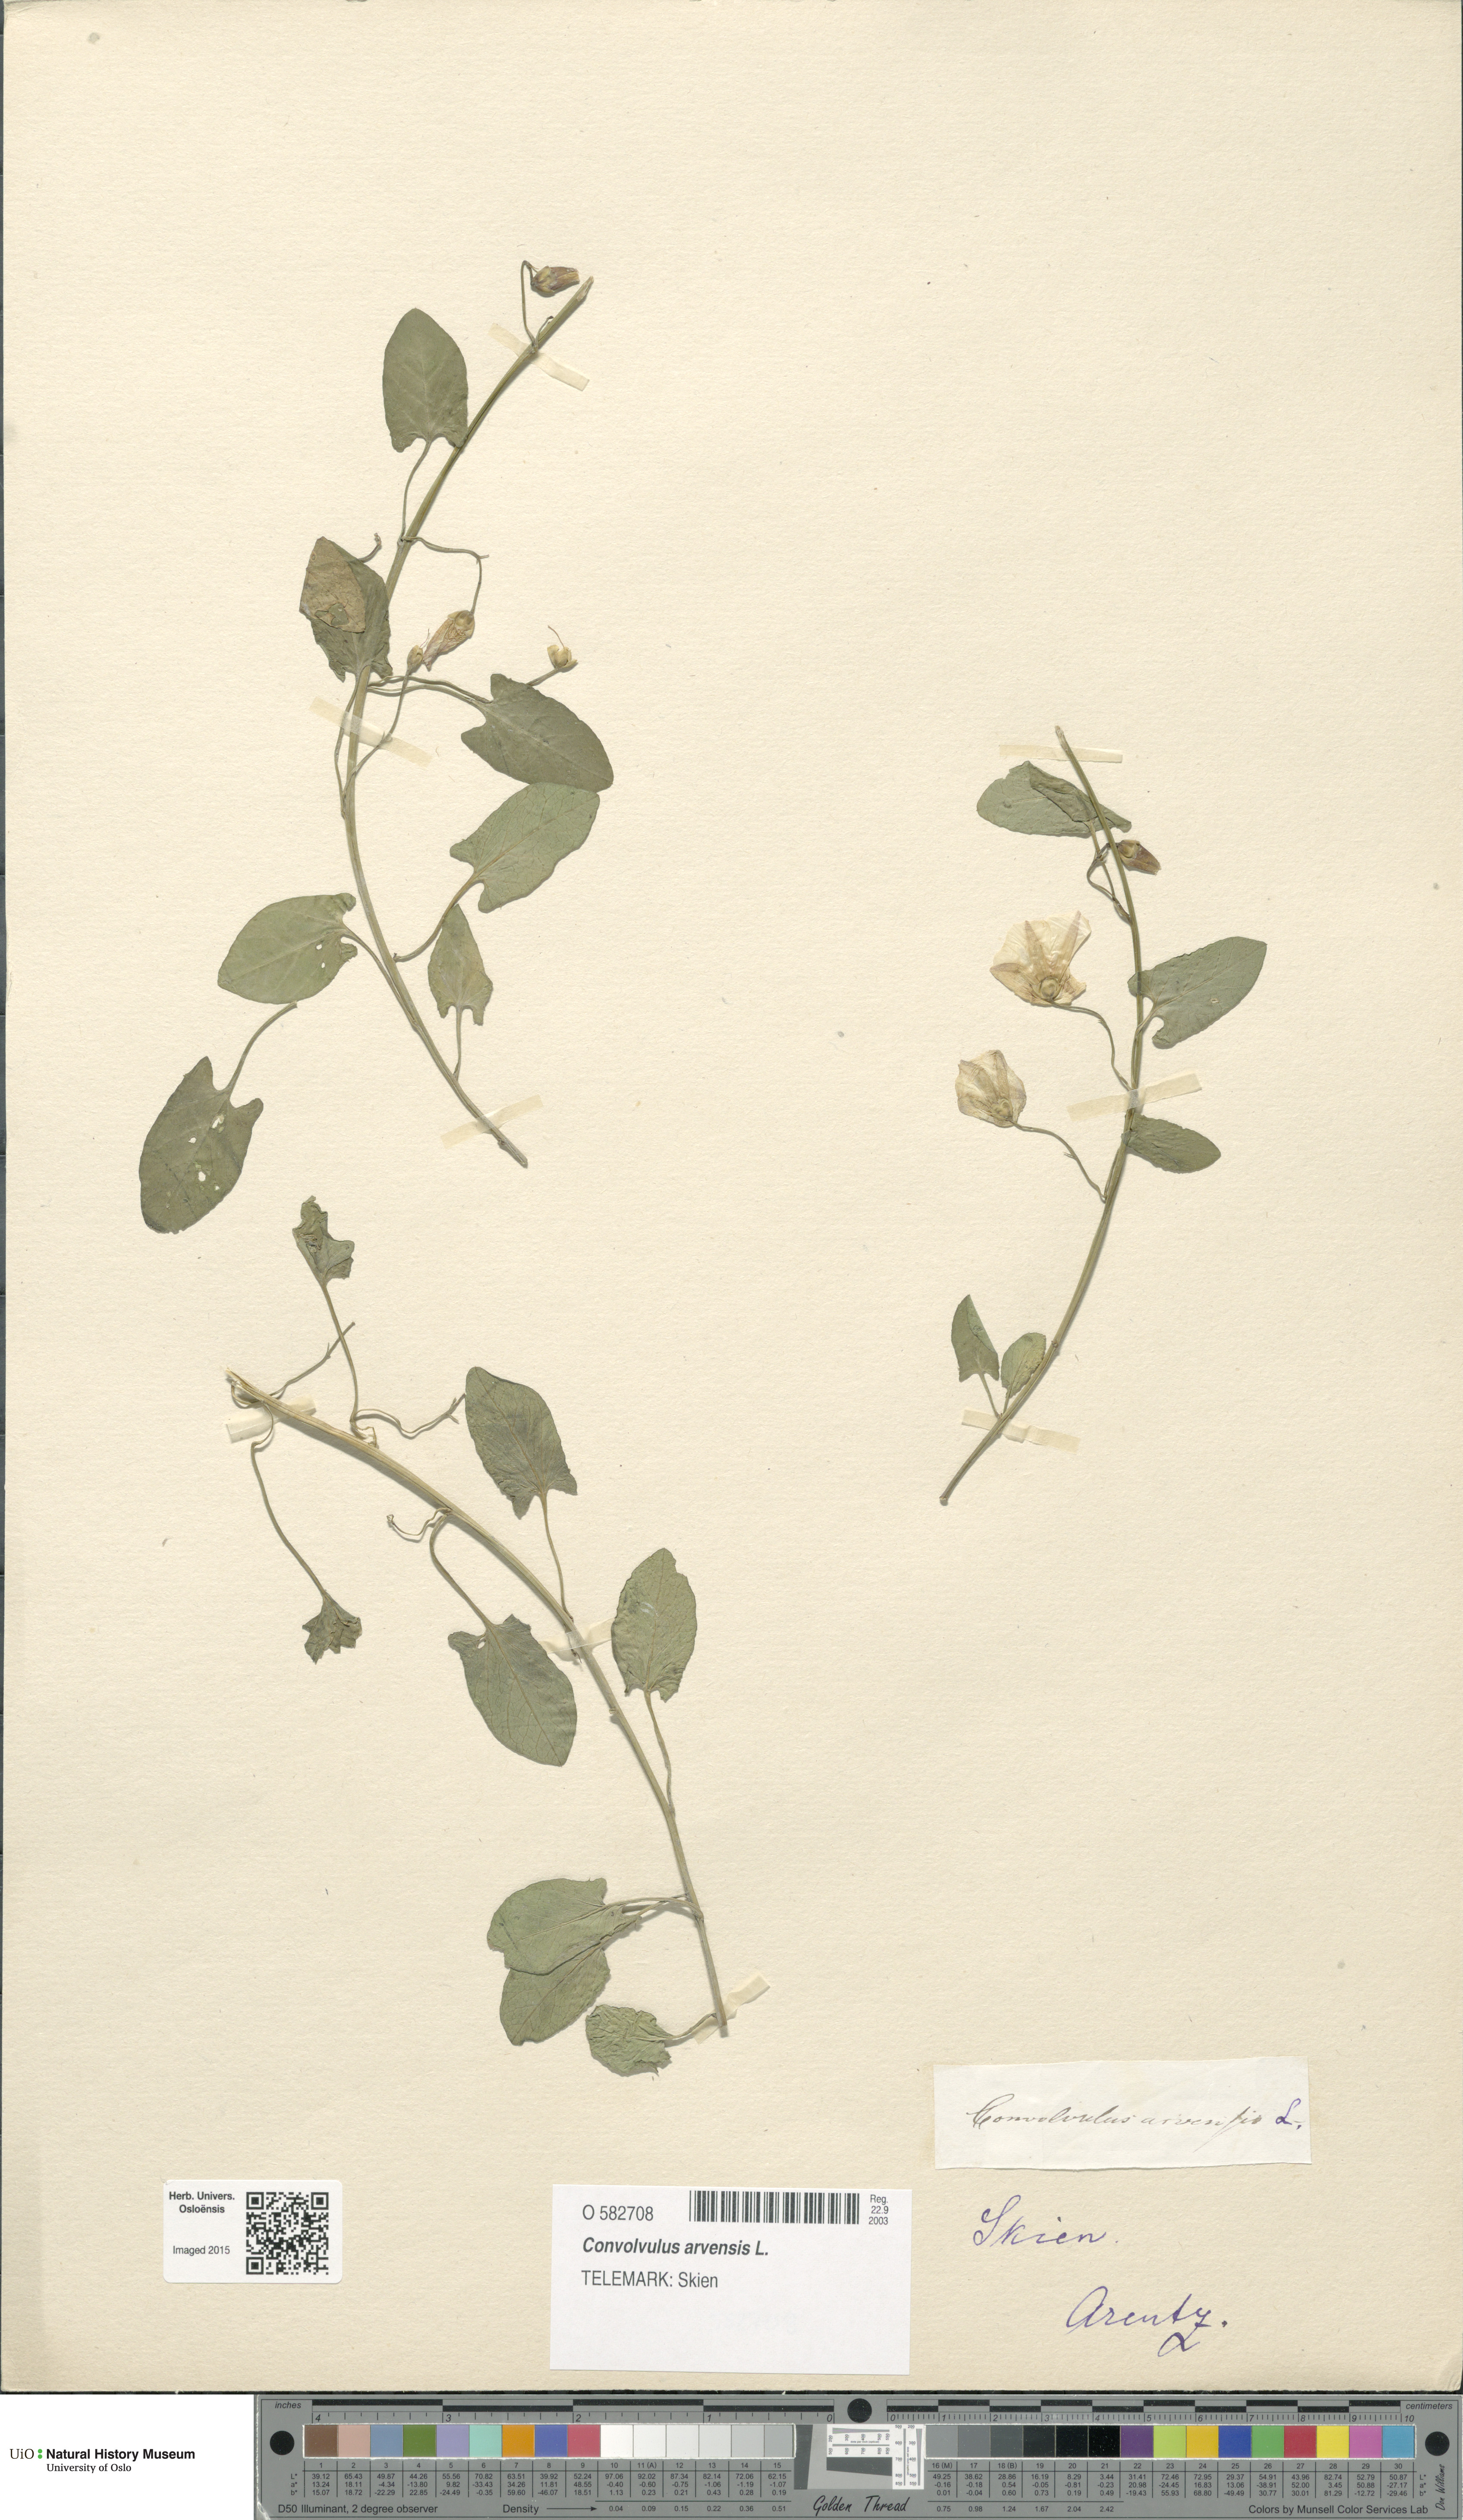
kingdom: Plantae
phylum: Tracheophyta
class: Magnoliopsida
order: Solanales
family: Convolvulaceae
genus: Convolvulus
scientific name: Convolvulus arvensis
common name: Field bindweed
